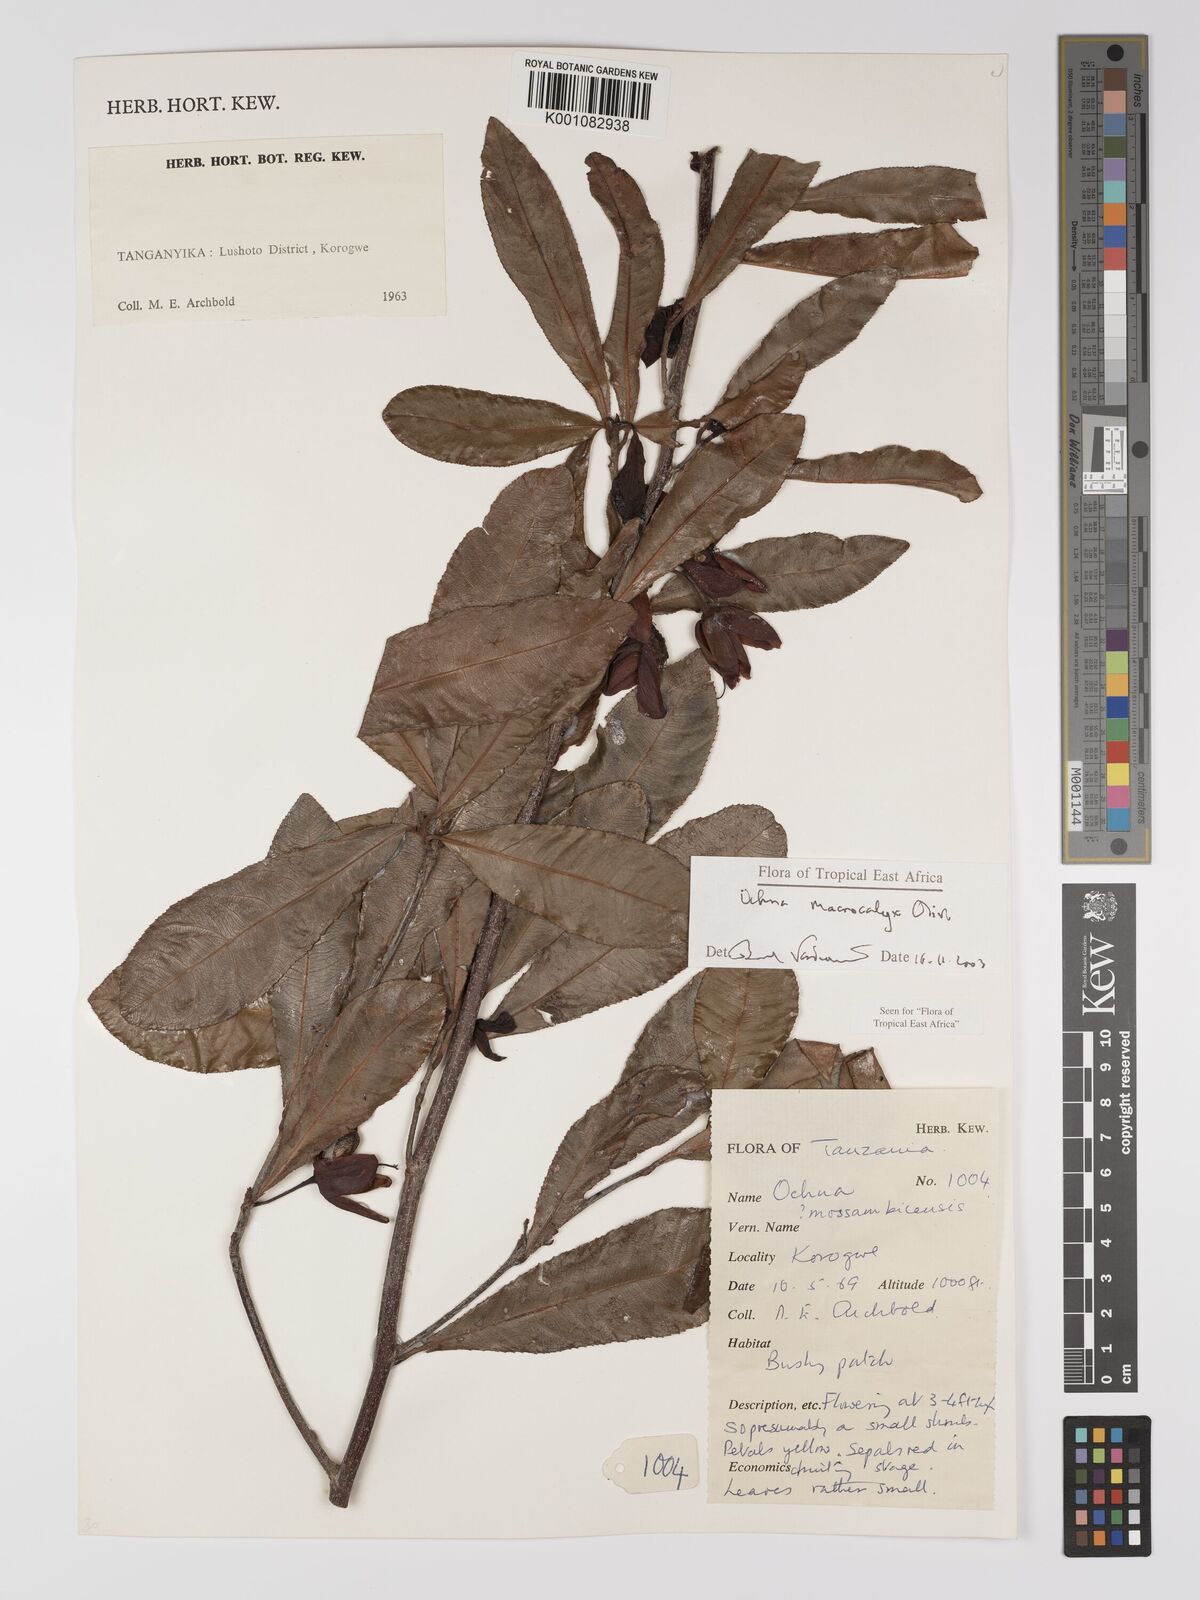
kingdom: Plantae
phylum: Tracheophyta
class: Magnoliopsida
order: Malpighiales
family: Ochnaceae
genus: Ochna
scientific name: Ochna macrocalyx
